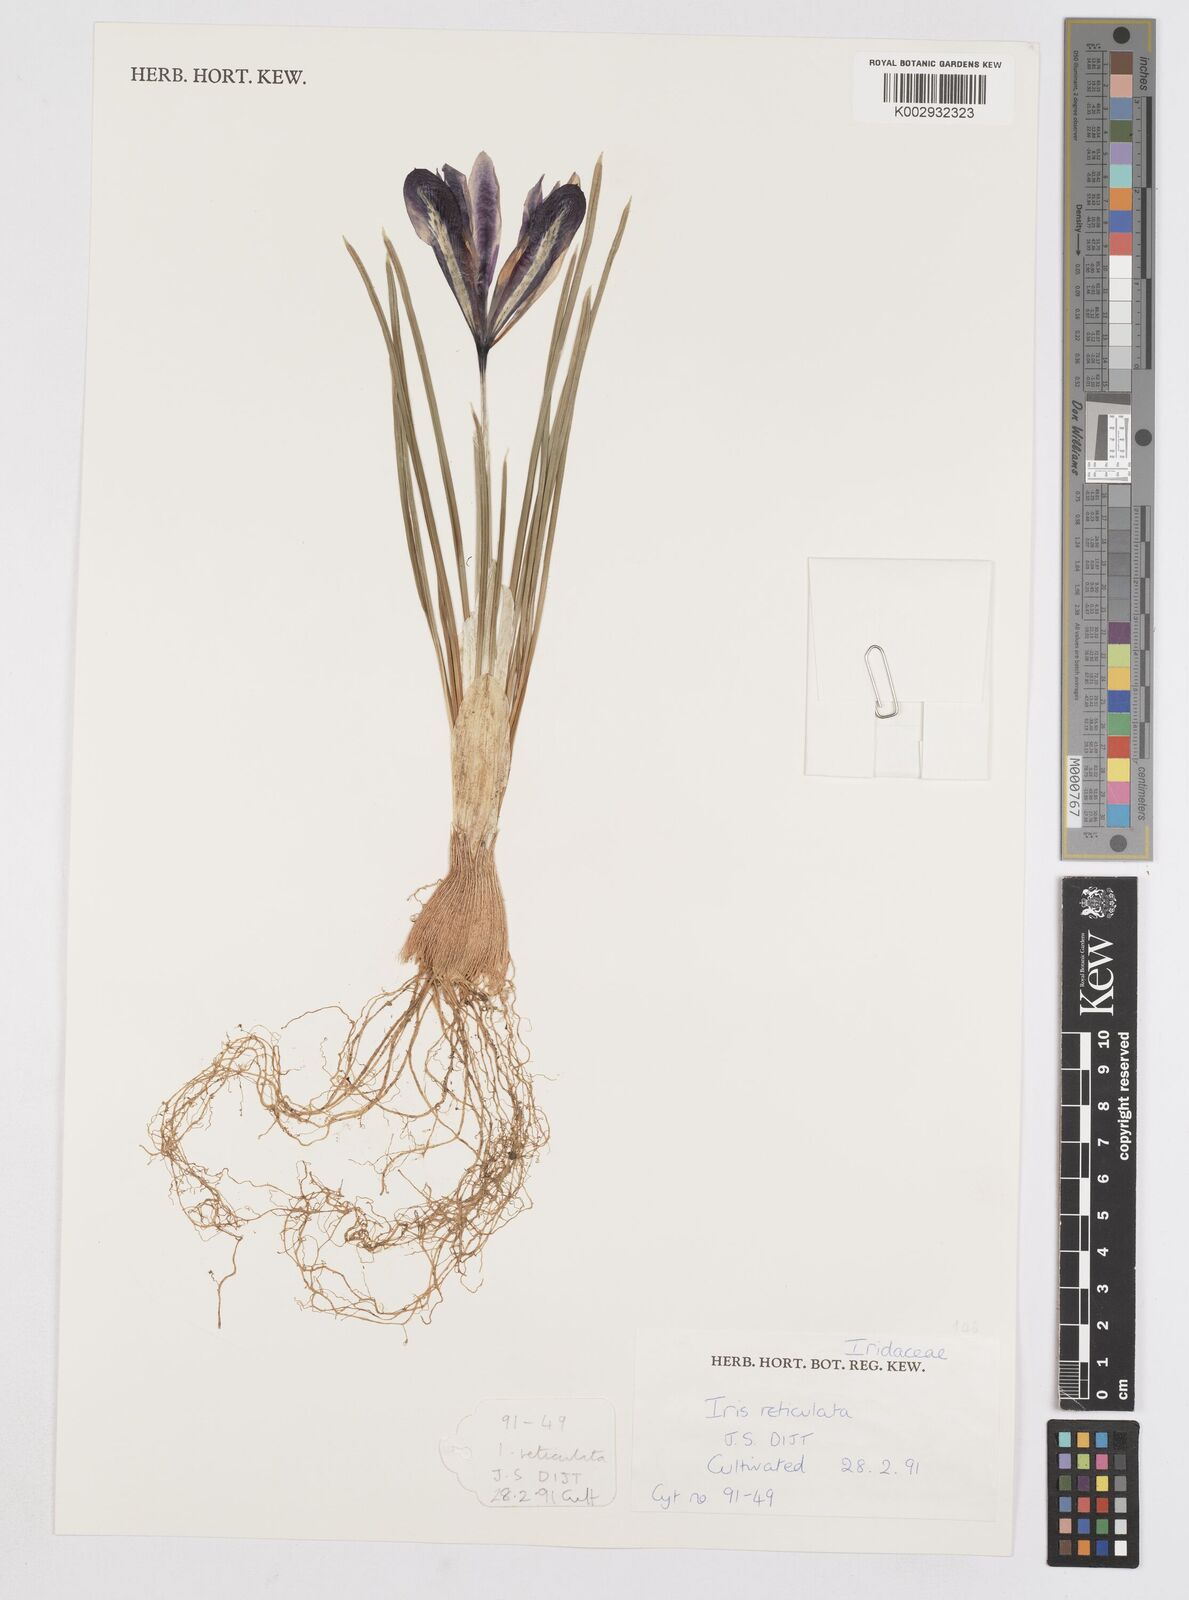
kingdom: Plantae
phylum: Tracheophyta
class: Liliopsida
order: Asparagales
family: Iridaceae
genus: Iris
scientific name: Iris reticulata
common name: Netted iris
